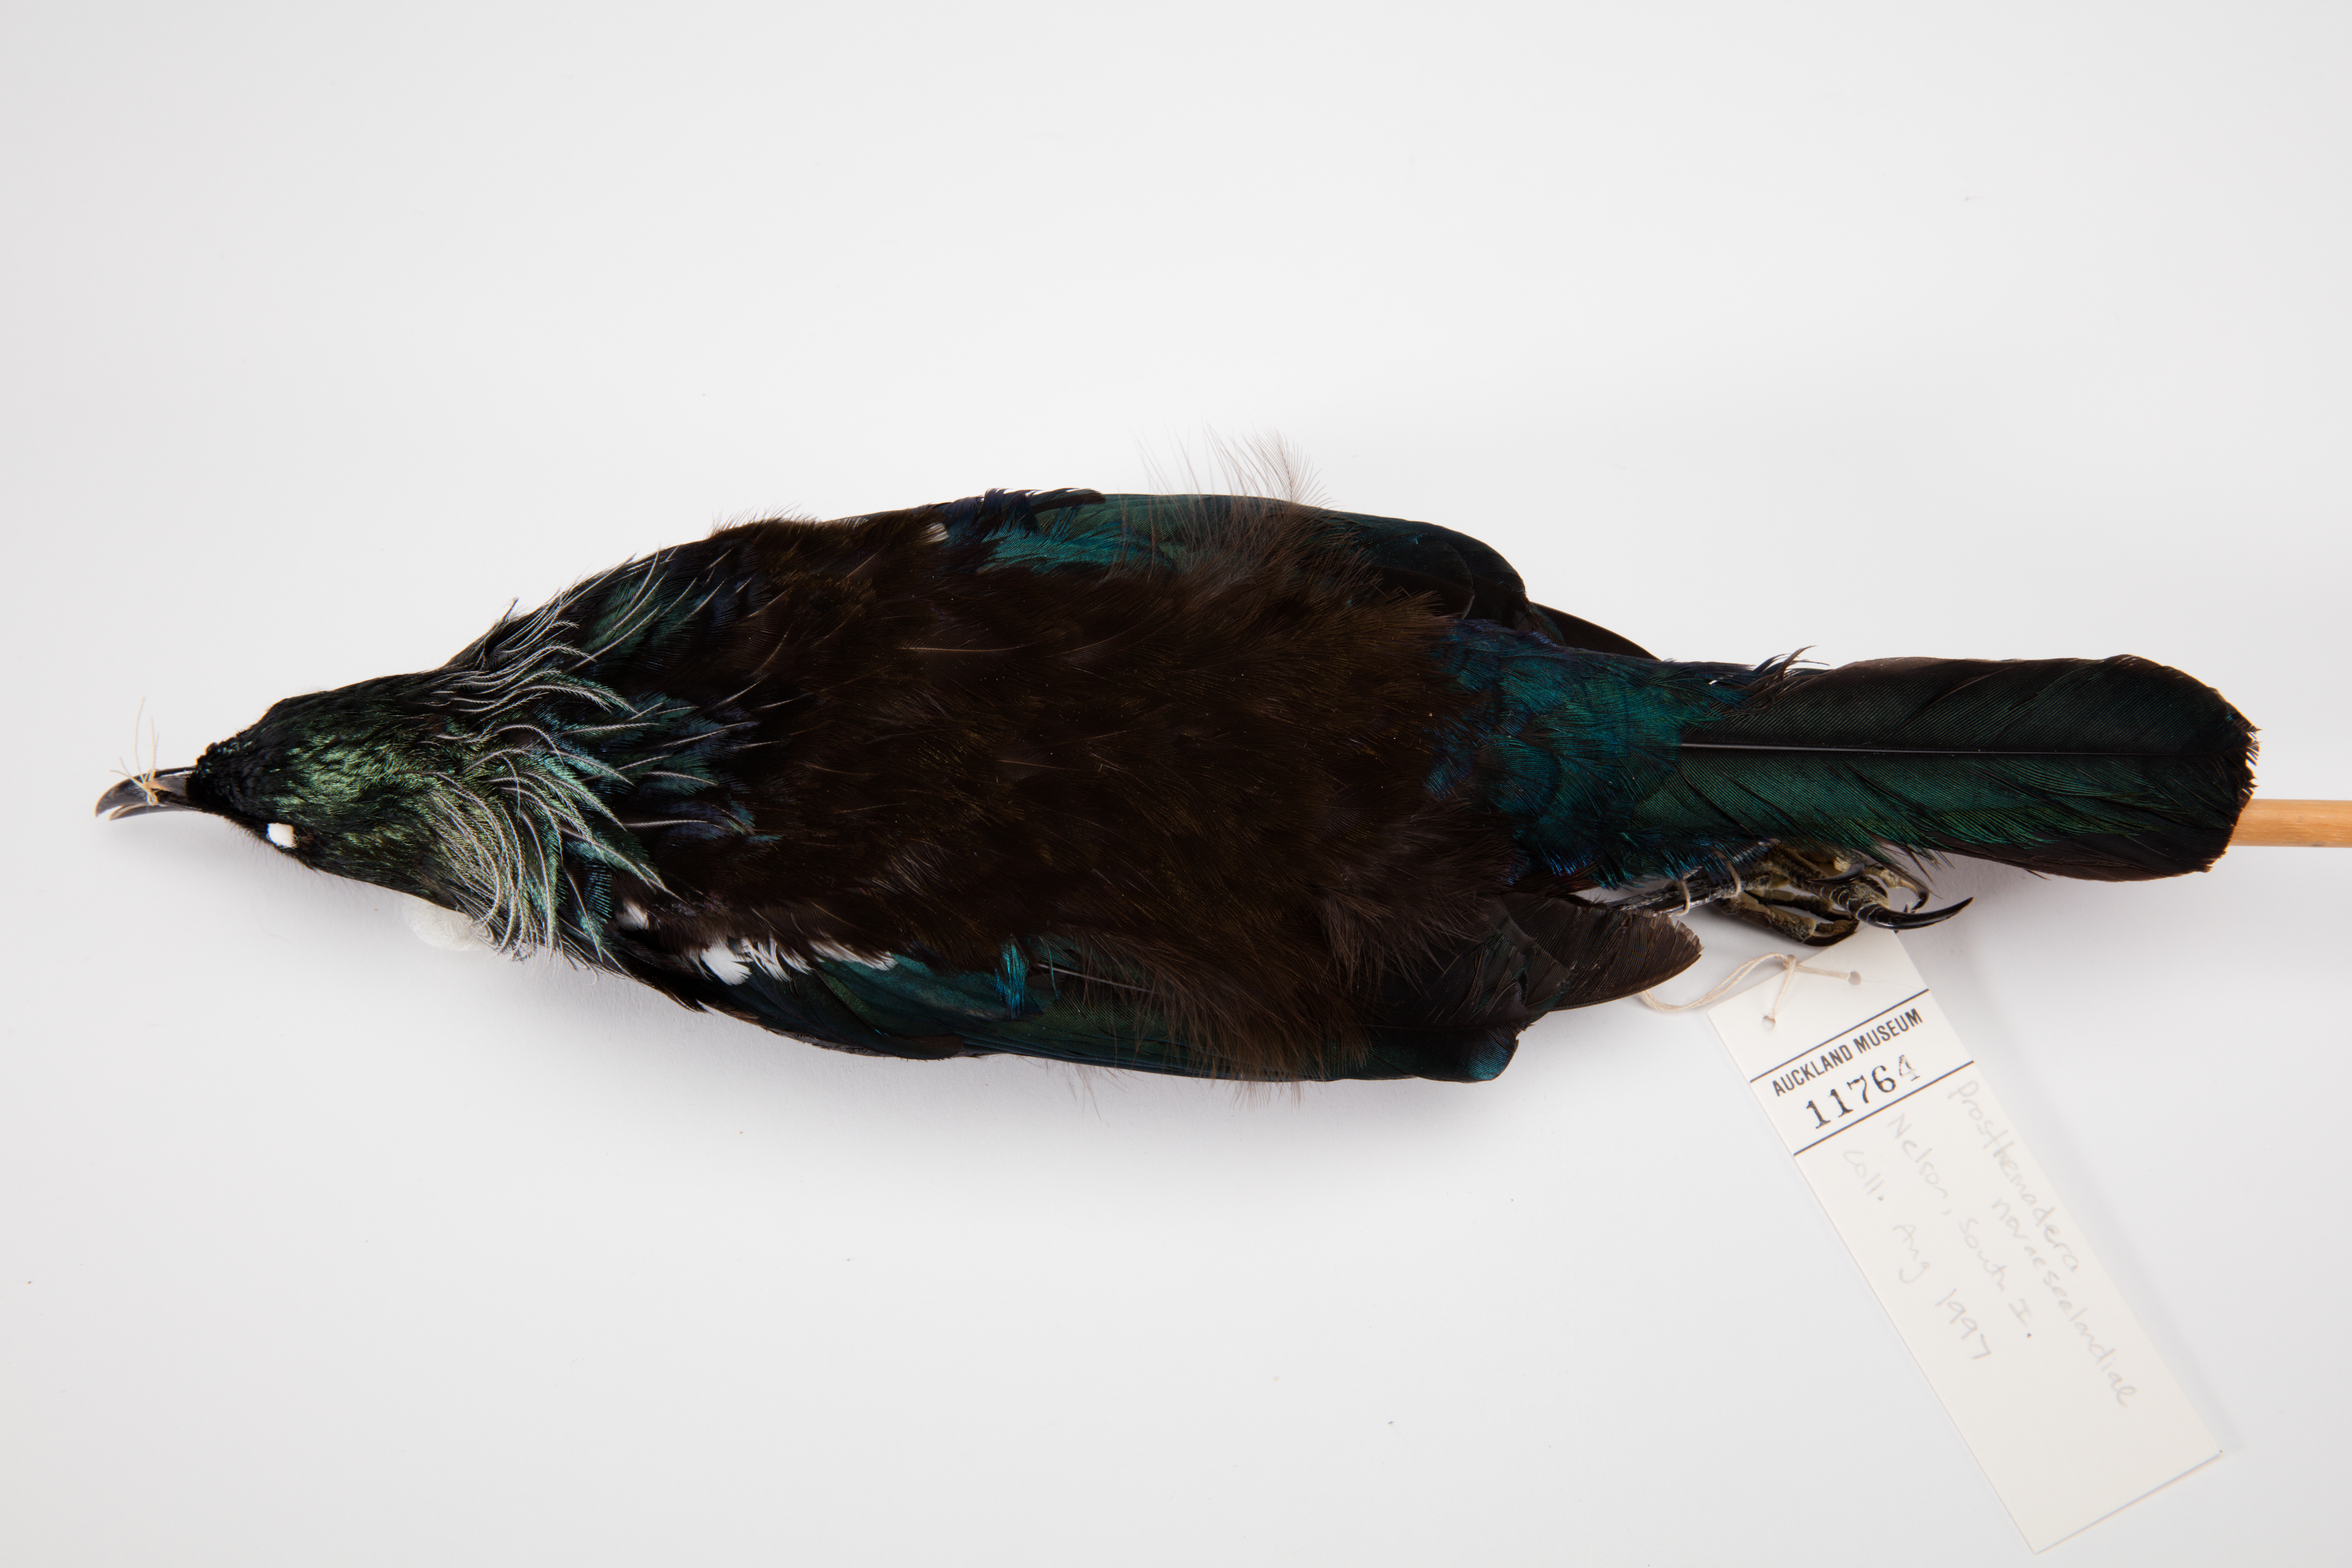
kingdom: Animalia
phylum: Chordata
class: Aves
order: Passeriformes
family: Meliphagidae
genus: Prosthemadera
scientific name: Prosthemadera novaeseelandiae
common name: Tui
